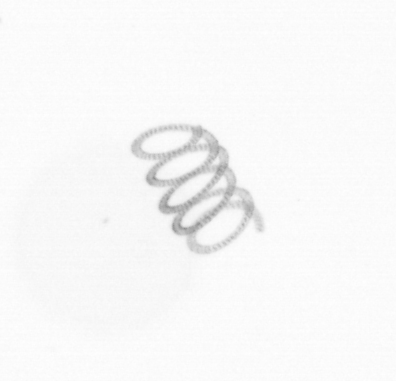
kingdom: Chromista
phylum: Ochrophyta
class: Bacillariophyceae
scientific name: Bacillariophyceae
